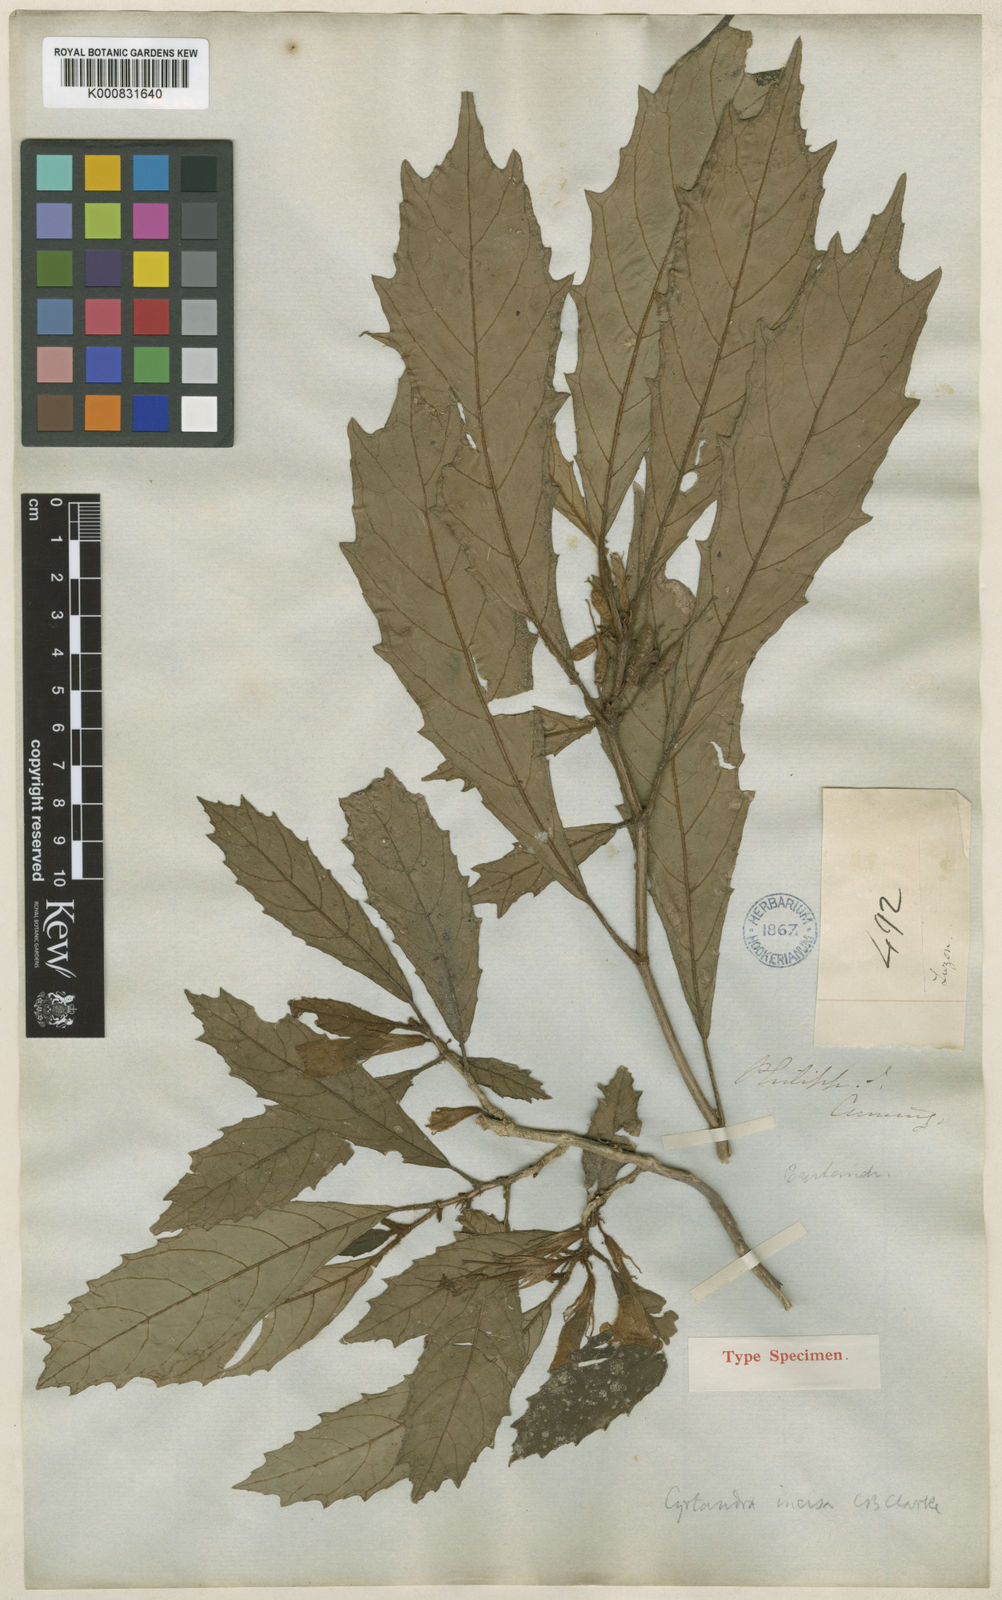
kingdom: Plantae
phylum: Tracheophyta
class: Magnoliopsida
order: Lamiales
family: Gesneriaceae
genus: Cyrtandra
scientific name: Cyrtandra incisa
